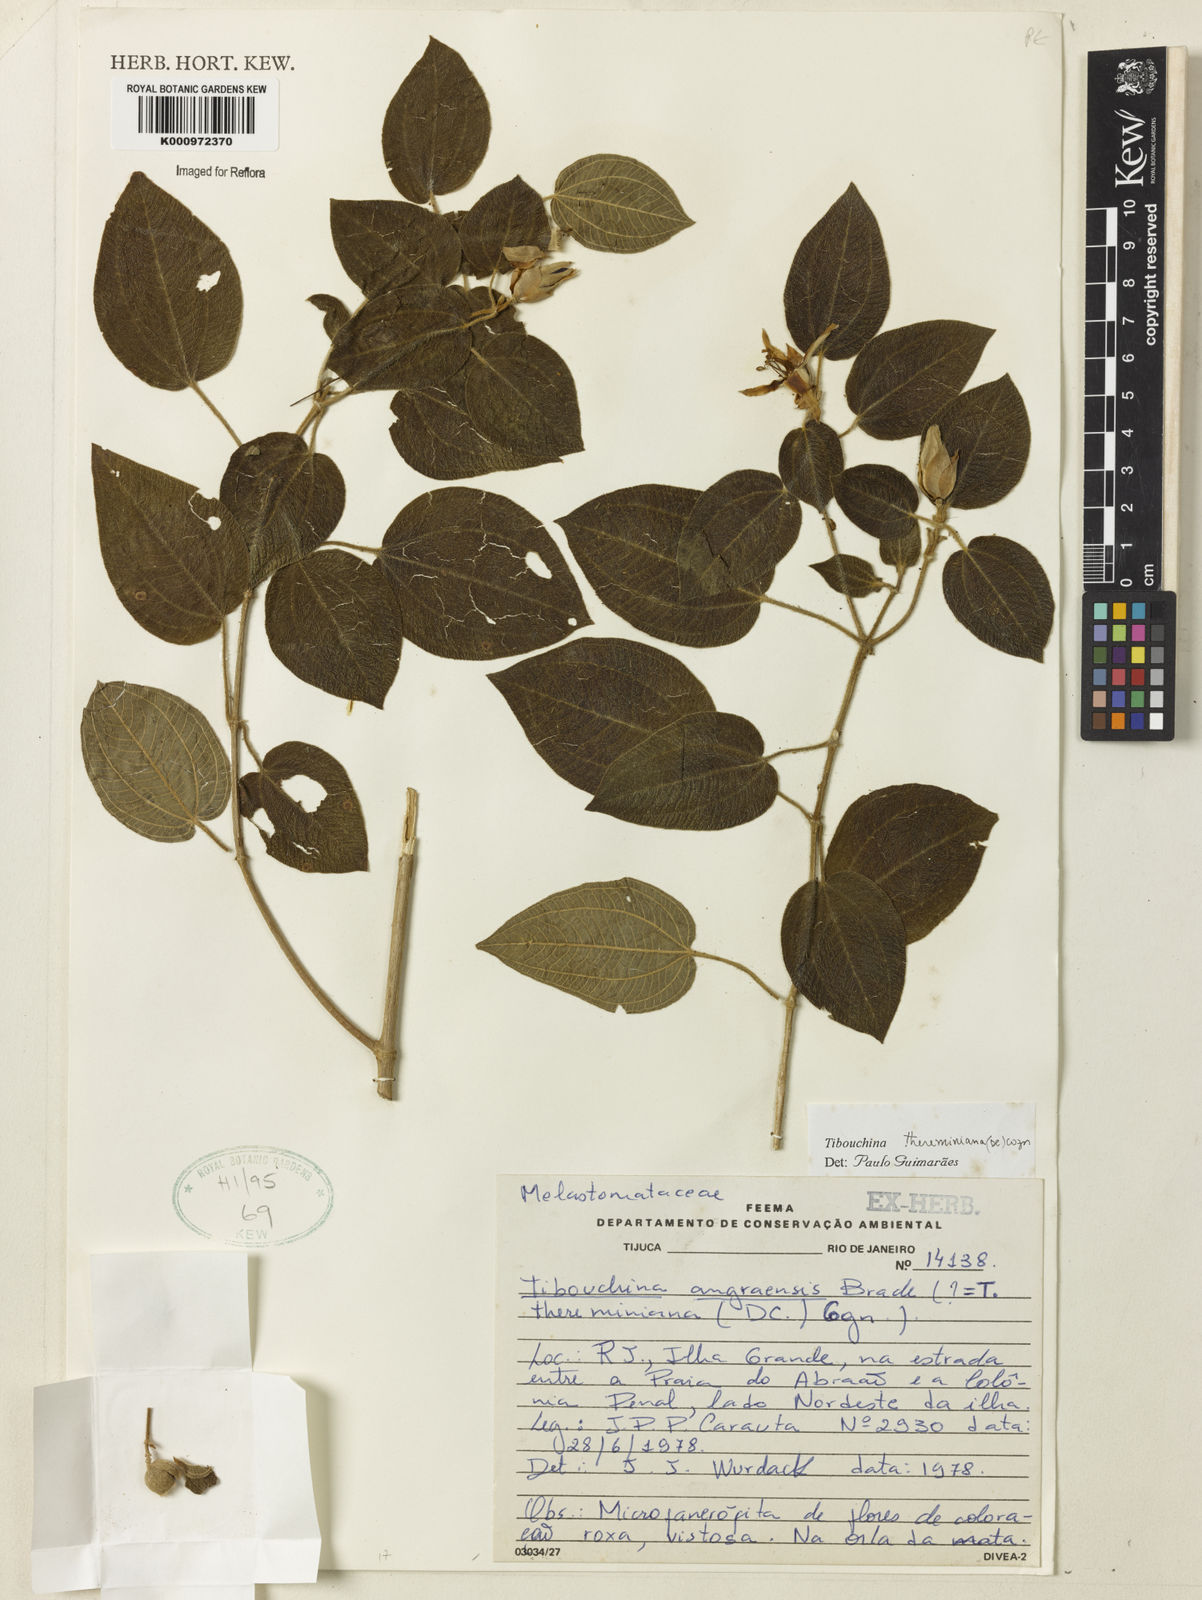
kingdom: Plantae
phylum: Tracheophyta
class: Magnoliopsida
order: Myrtales
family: Melastomataceae
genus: Pleroma
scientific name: Pleroma thereminianum
